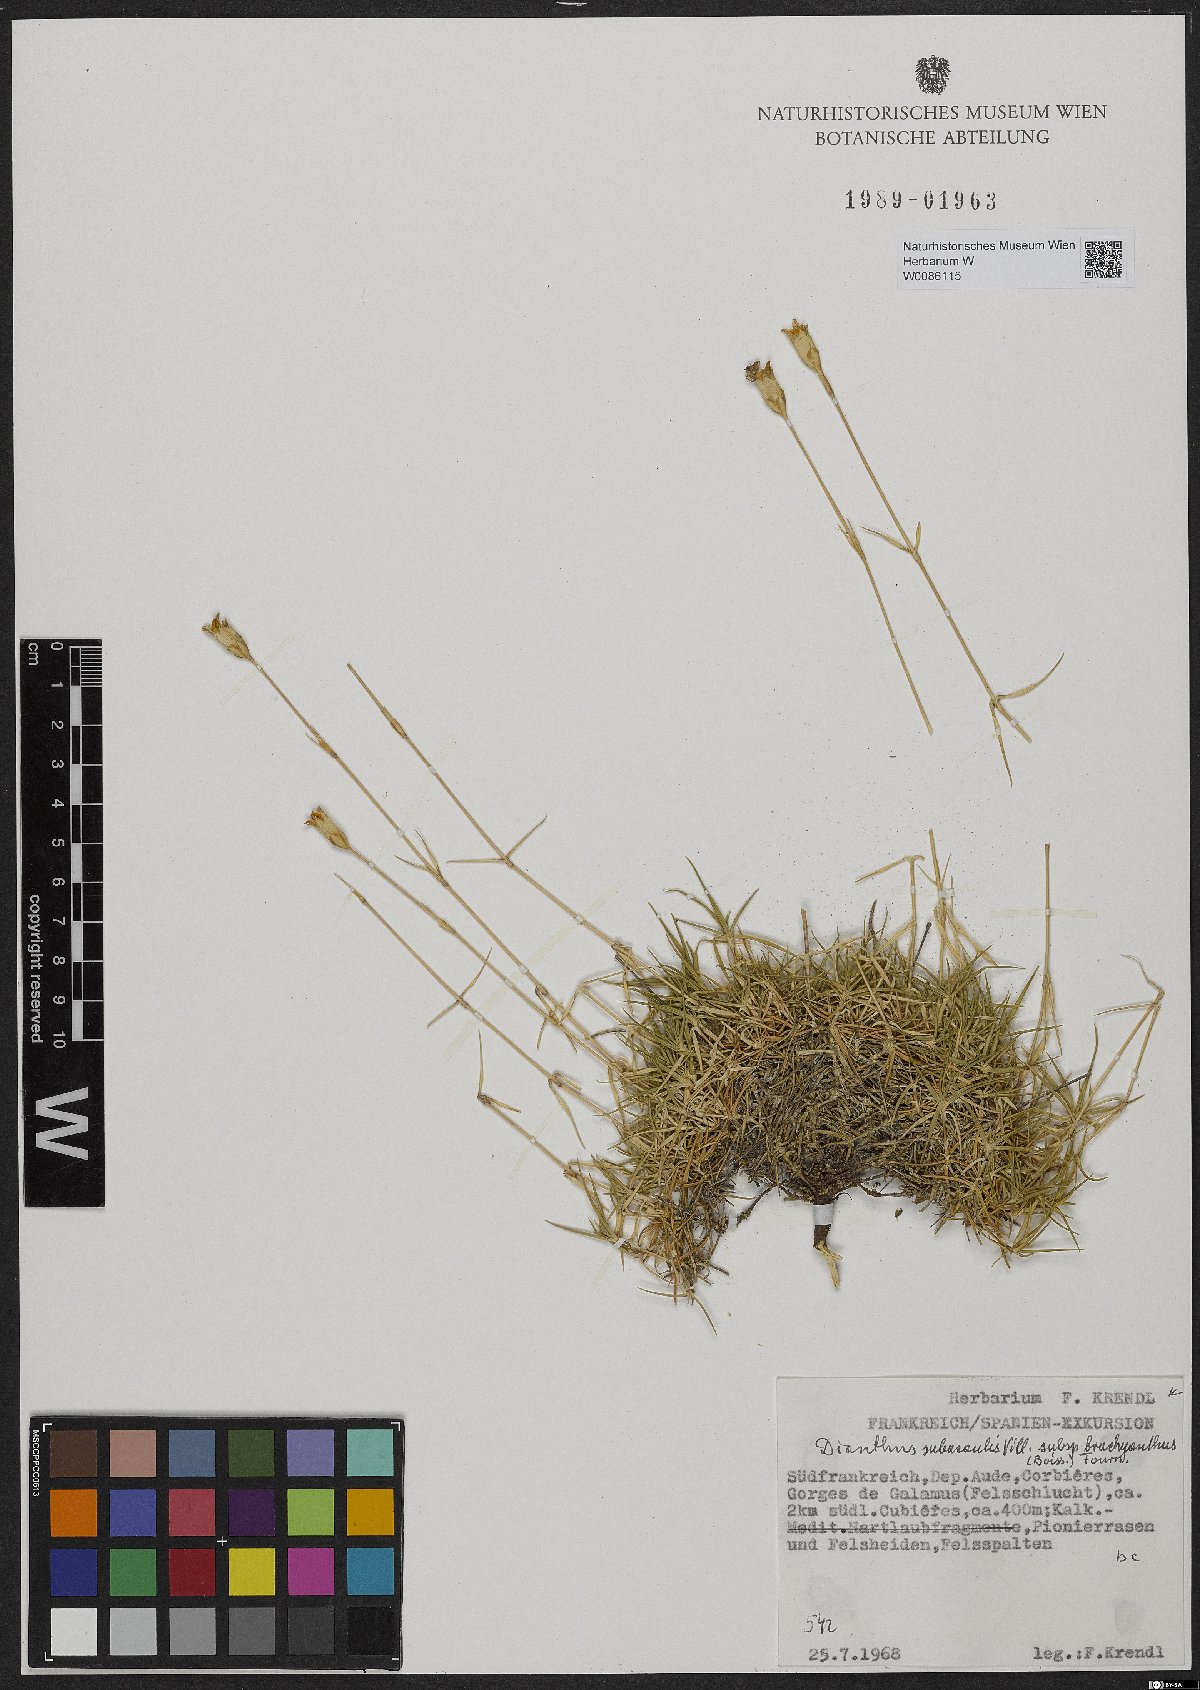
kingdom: Plantae
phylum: Tracheophyta
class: Magnoliopsida
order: Caryophyllales
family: Caryophyllaceae
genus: Dianthus
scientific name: Dianthus pungens
